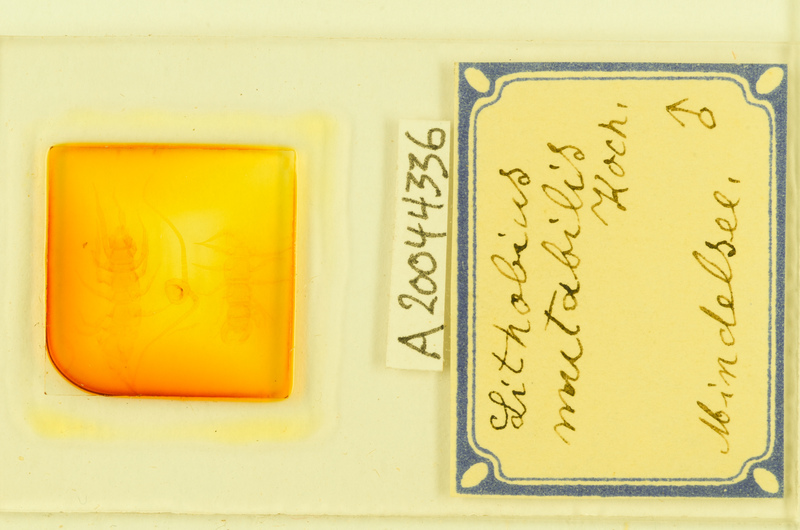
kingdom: Animalia
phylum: Arthropoda
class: Chilopoda
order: Lithobiomorpha
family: Lithobiidae
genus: Lithobius
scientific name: Lithobius mutabilis
